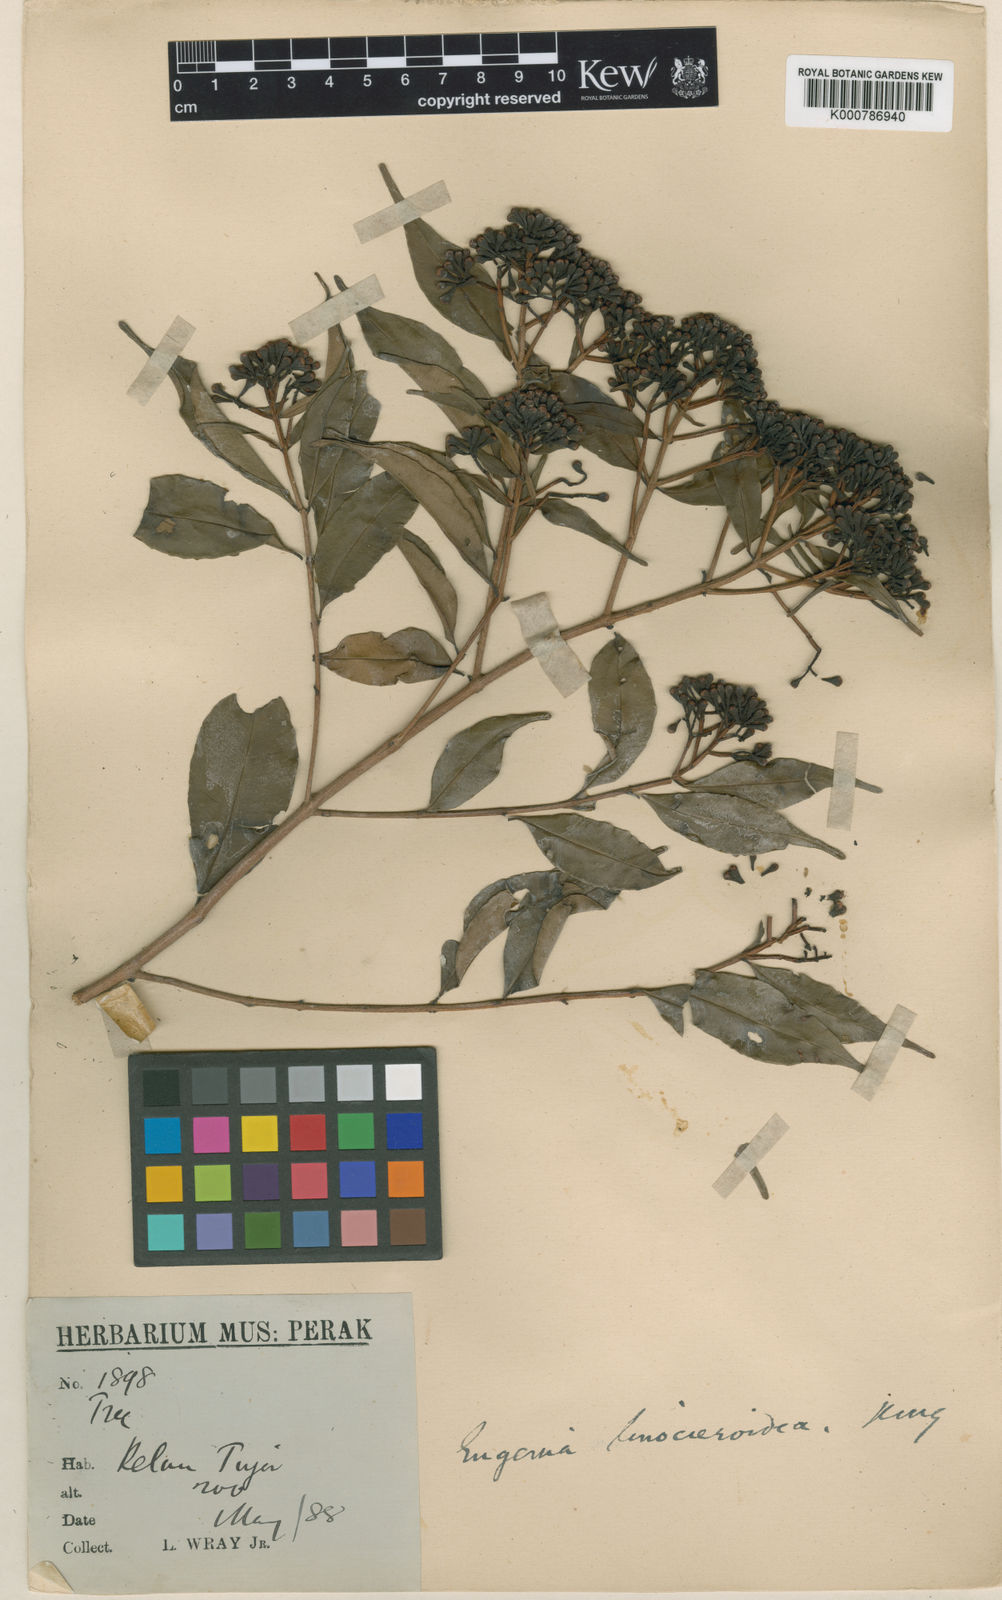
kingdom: Plantae
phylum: Tracheophyta
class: Magnoliopsida
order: Myrtales
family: Myrtaceae
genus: Syzygium
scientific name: Syzygium linocieroideum
